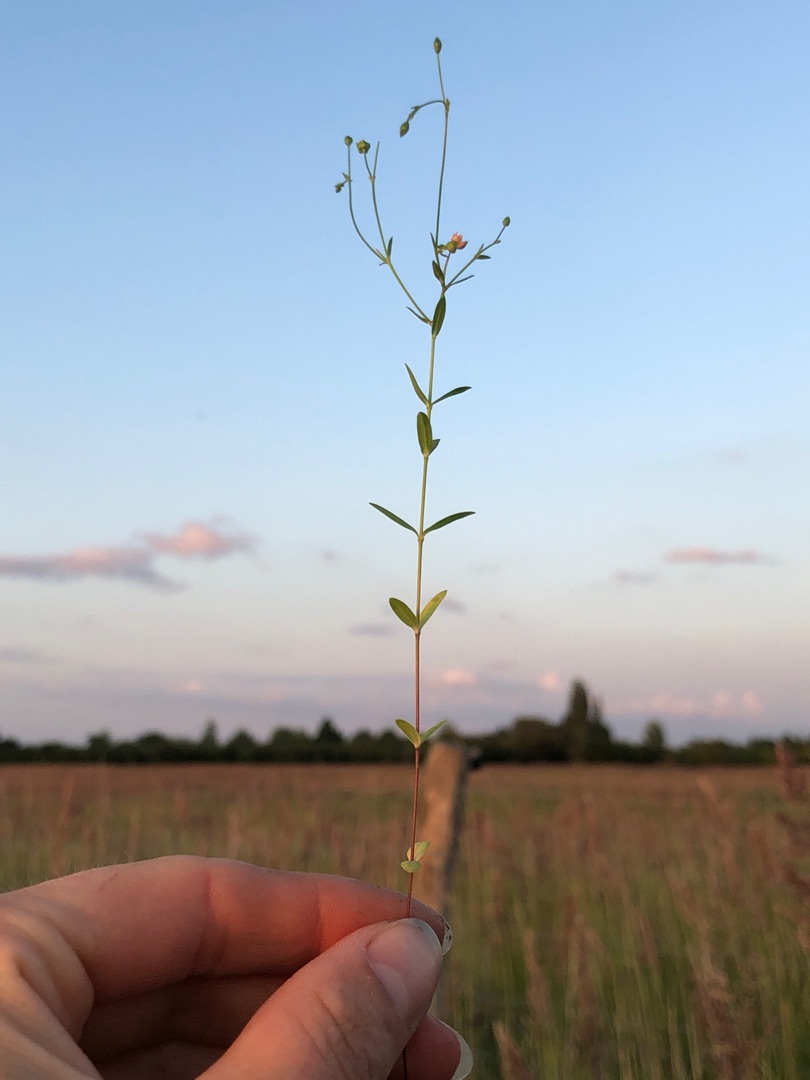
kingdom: Plantae
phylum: Tracheophyta
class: Magnoliopsida
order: Malpighiales
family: Linaceae
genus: Linum
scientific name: Linum catharticum
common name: Vild hør
